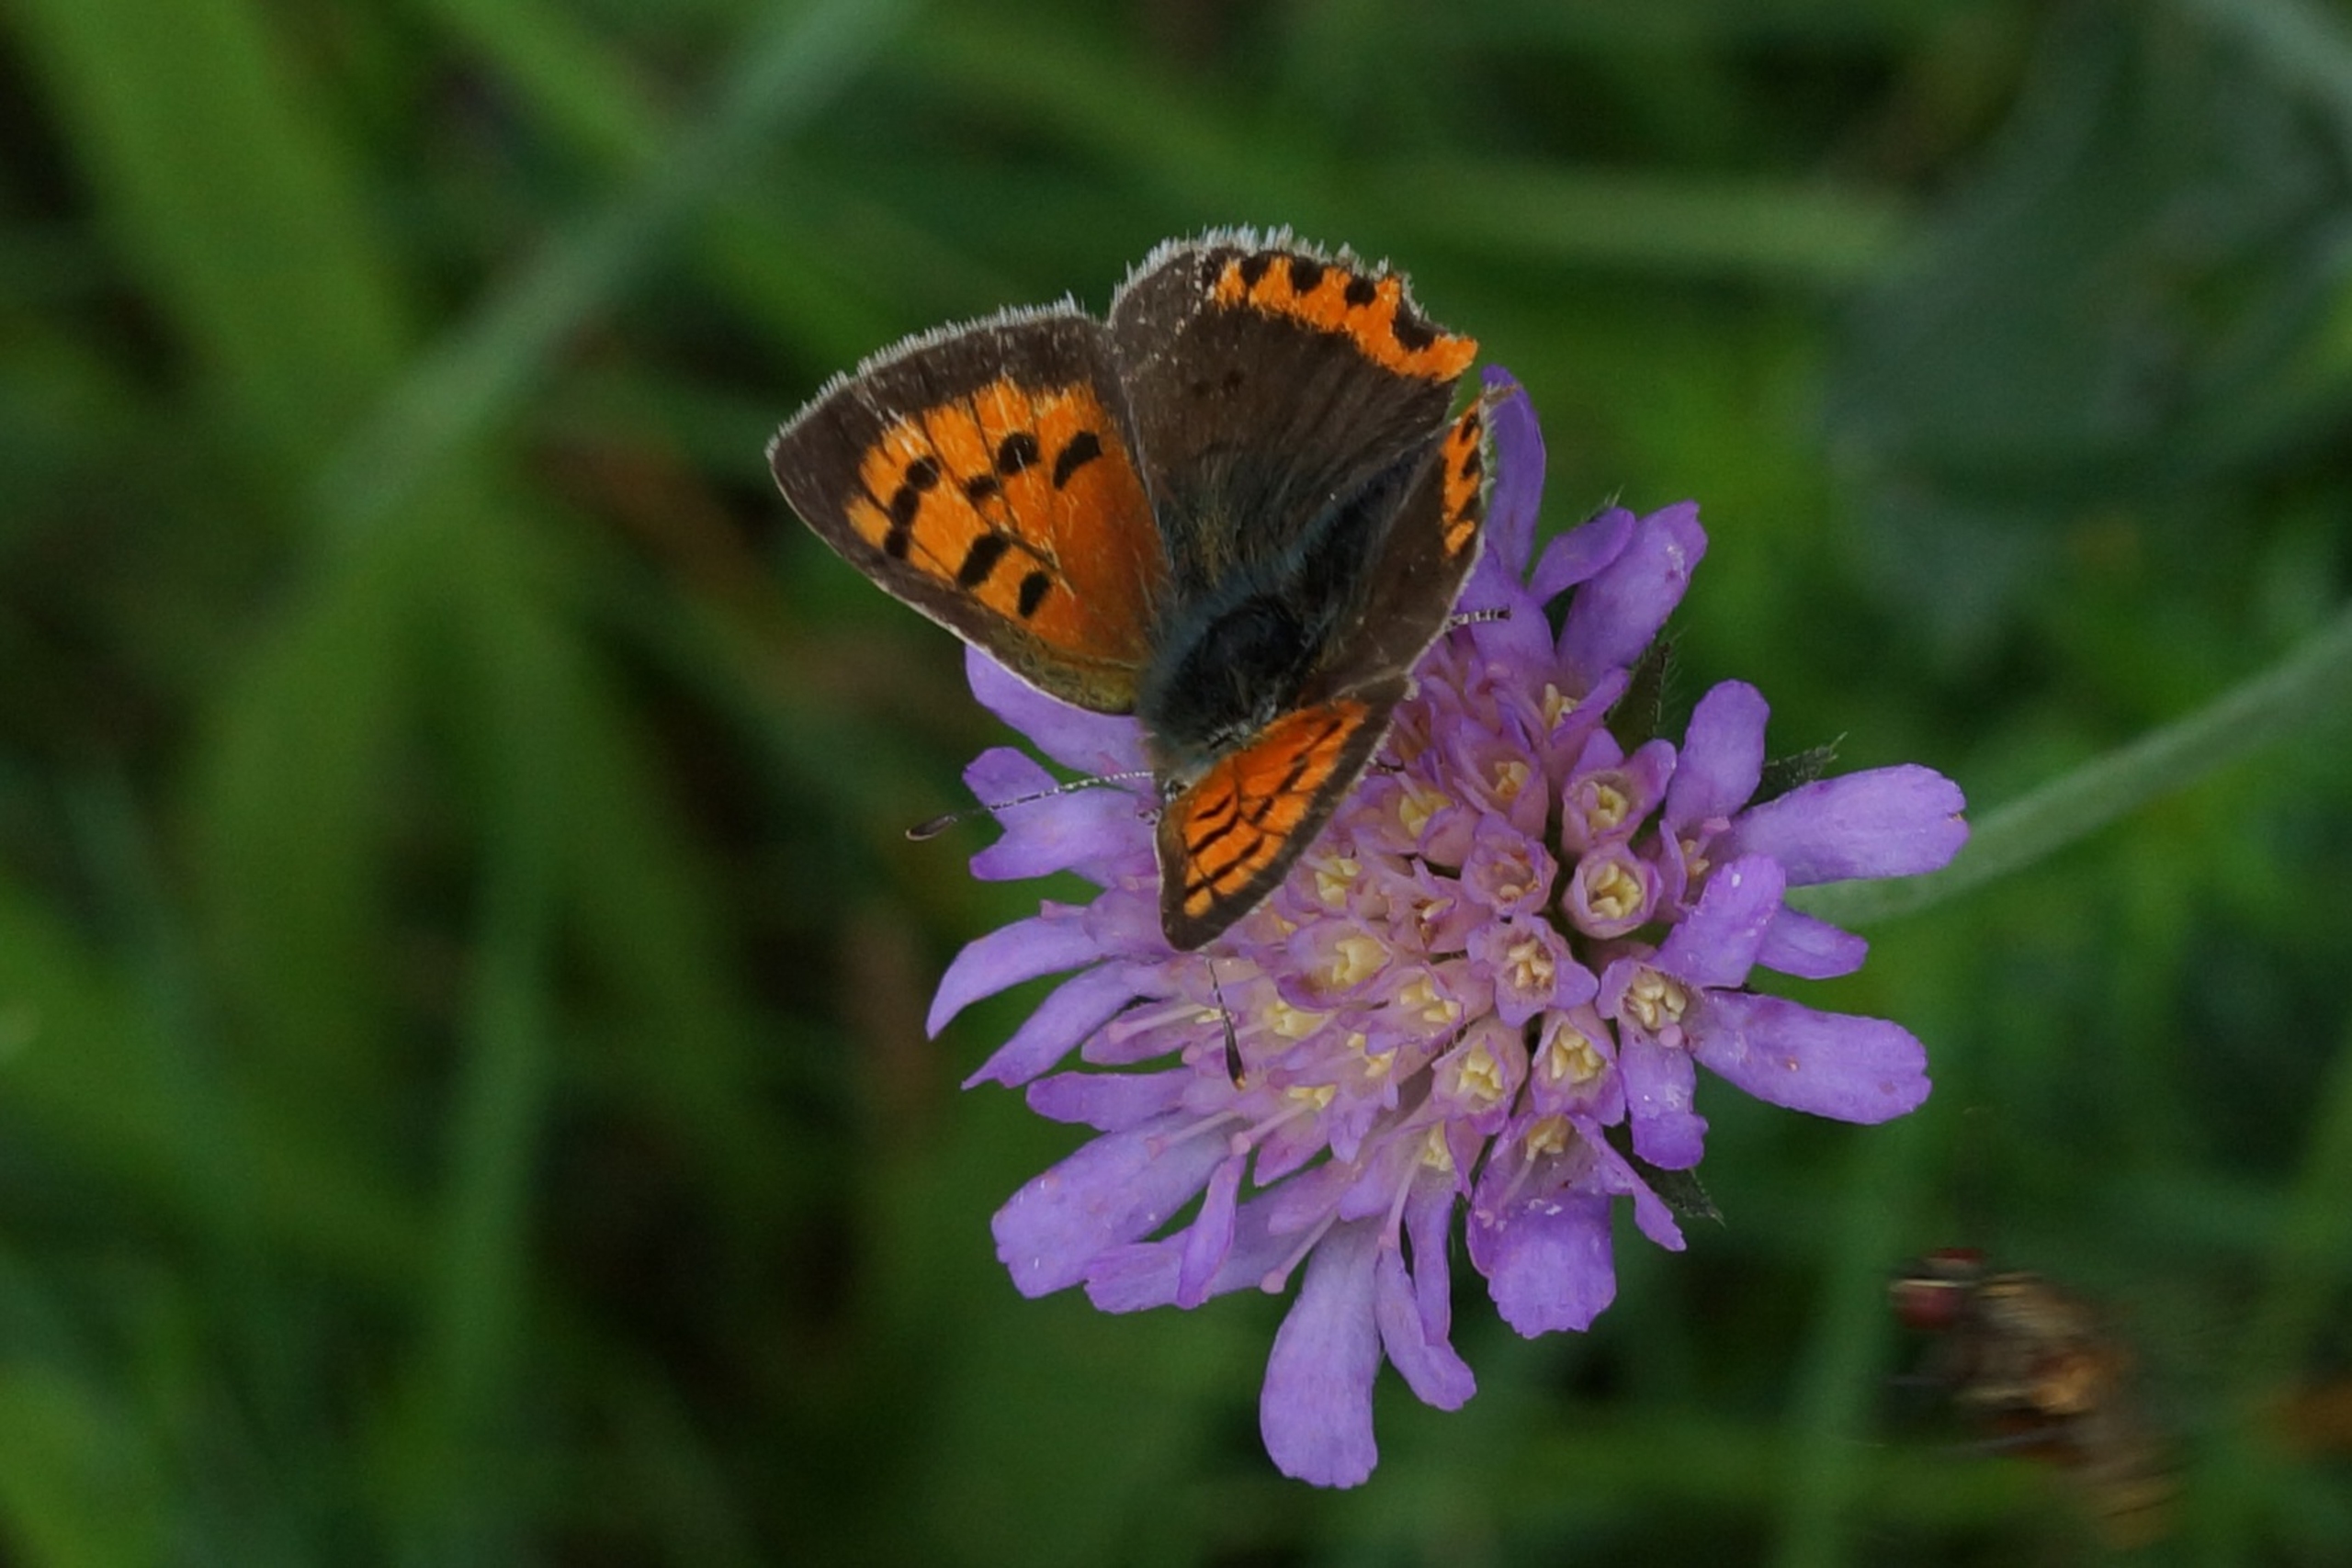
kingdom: Animalia
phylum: Arthropoda
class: Insecta
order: Lepidoptera
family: Lycaenidae
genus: Lycaena
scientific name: Lycaena phlaeas
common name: Lille ildfugl
